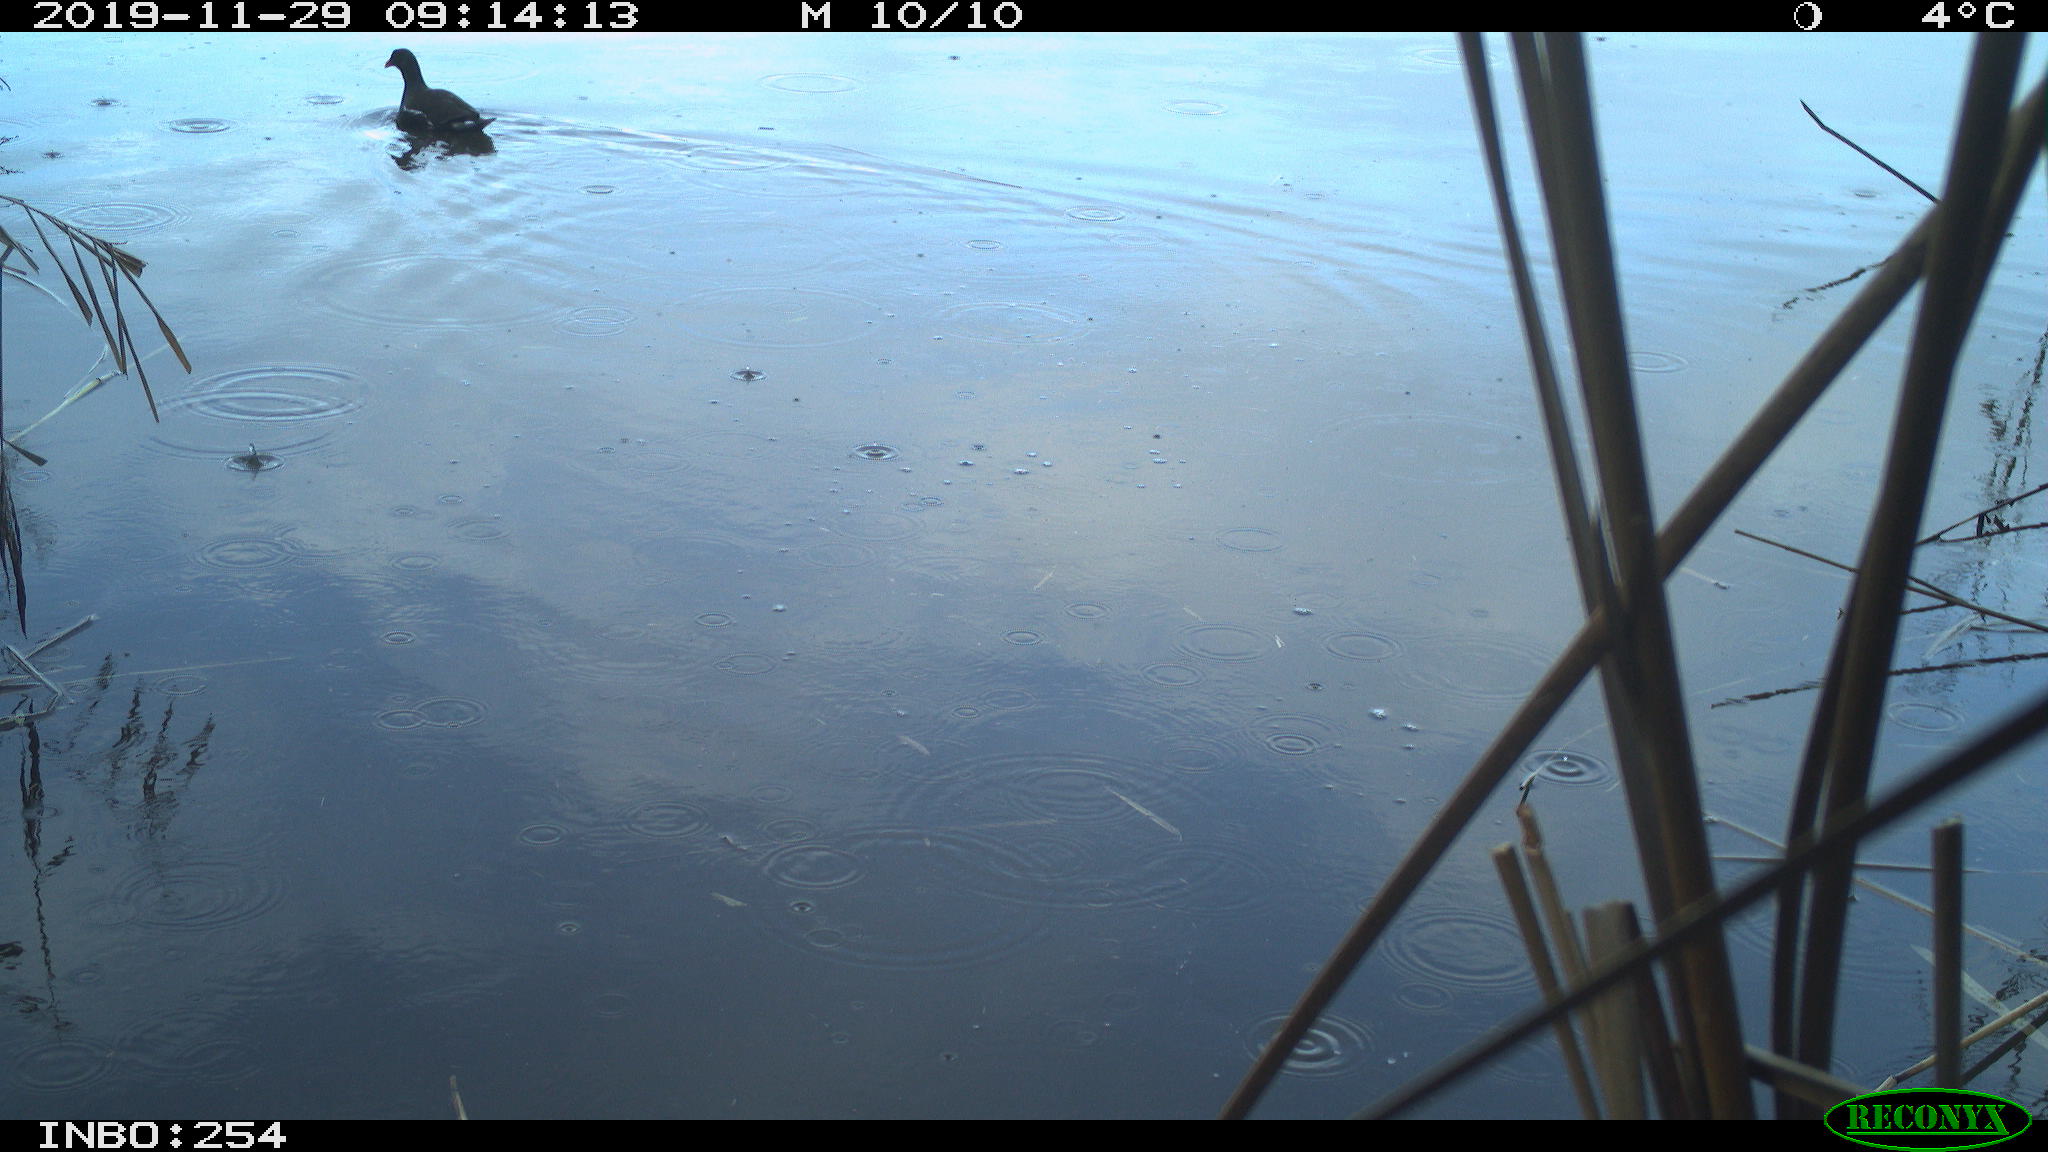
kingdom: Animalia
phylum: Chordata
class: Aves
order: Gruiformes
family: Rallidae
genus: Gallinula
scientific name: Gallinula chloropus
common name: Common moorhen
